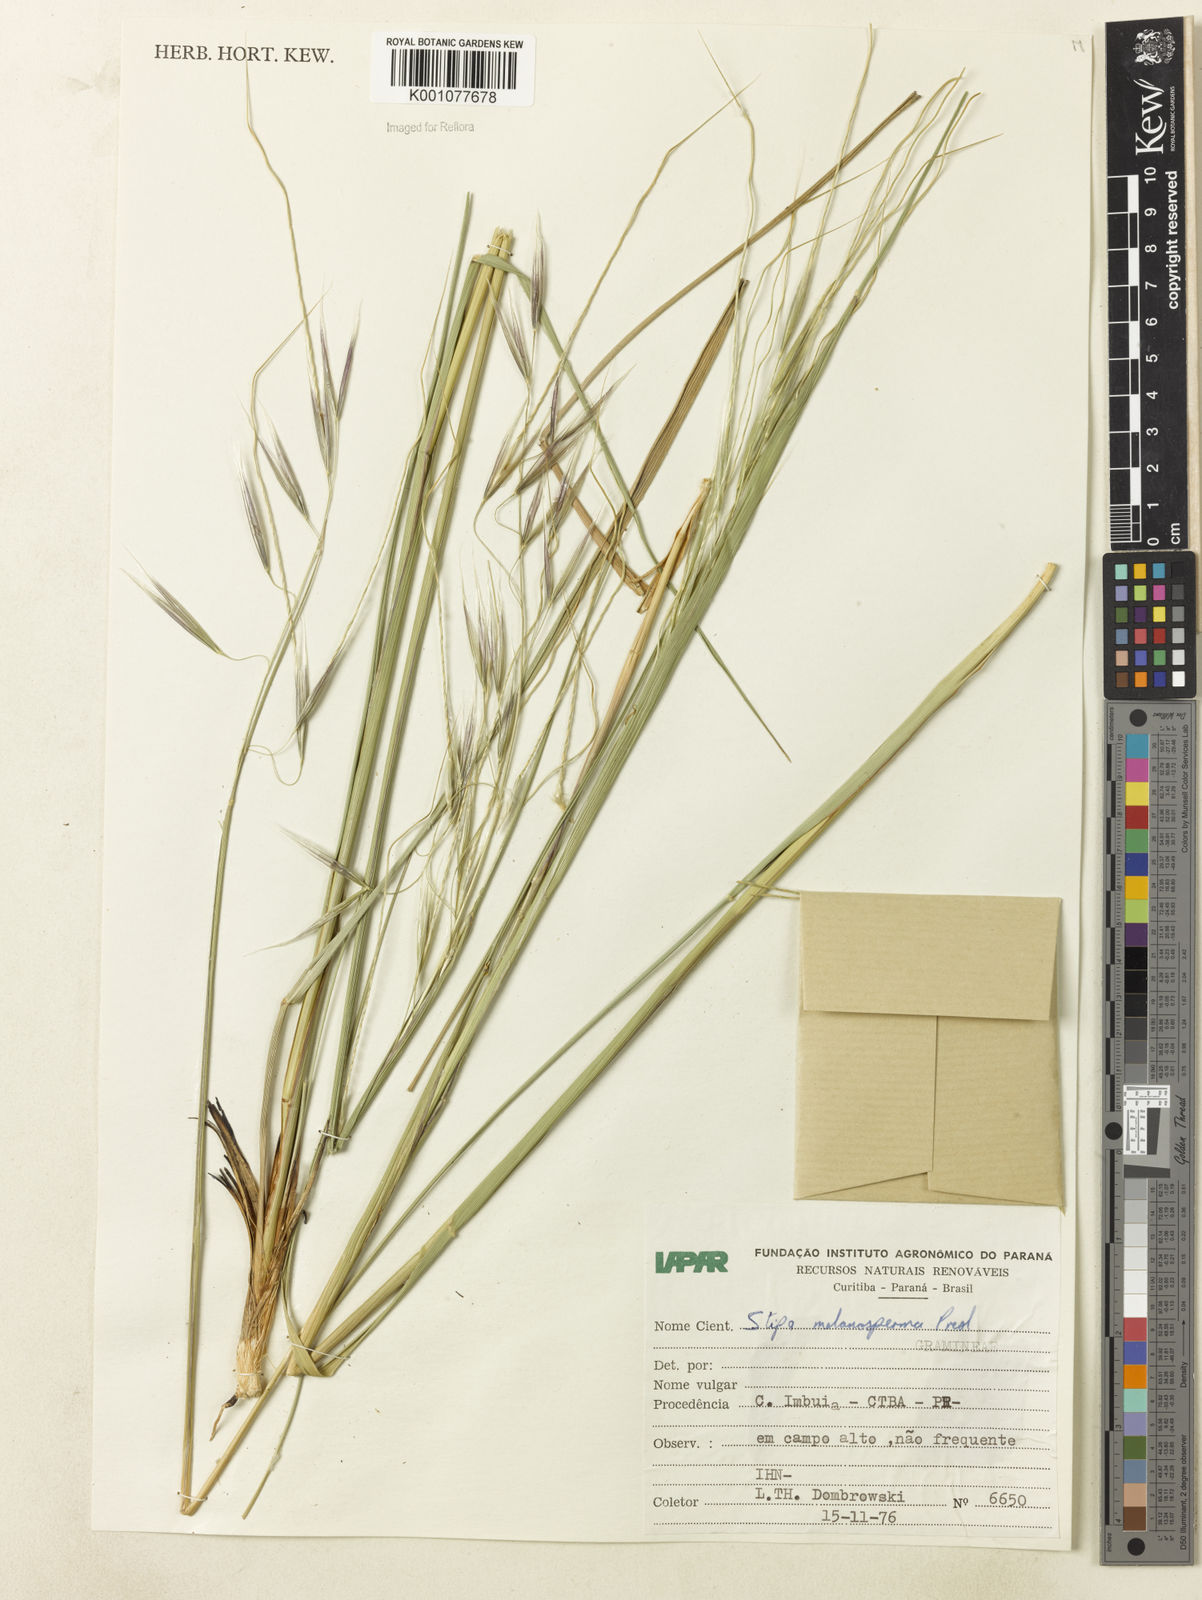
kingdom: Plantae
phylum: Tracheophyta
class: Liliopsida
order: Poales
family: Poaceae
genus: Nassella
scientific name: Nassella melanosperma
